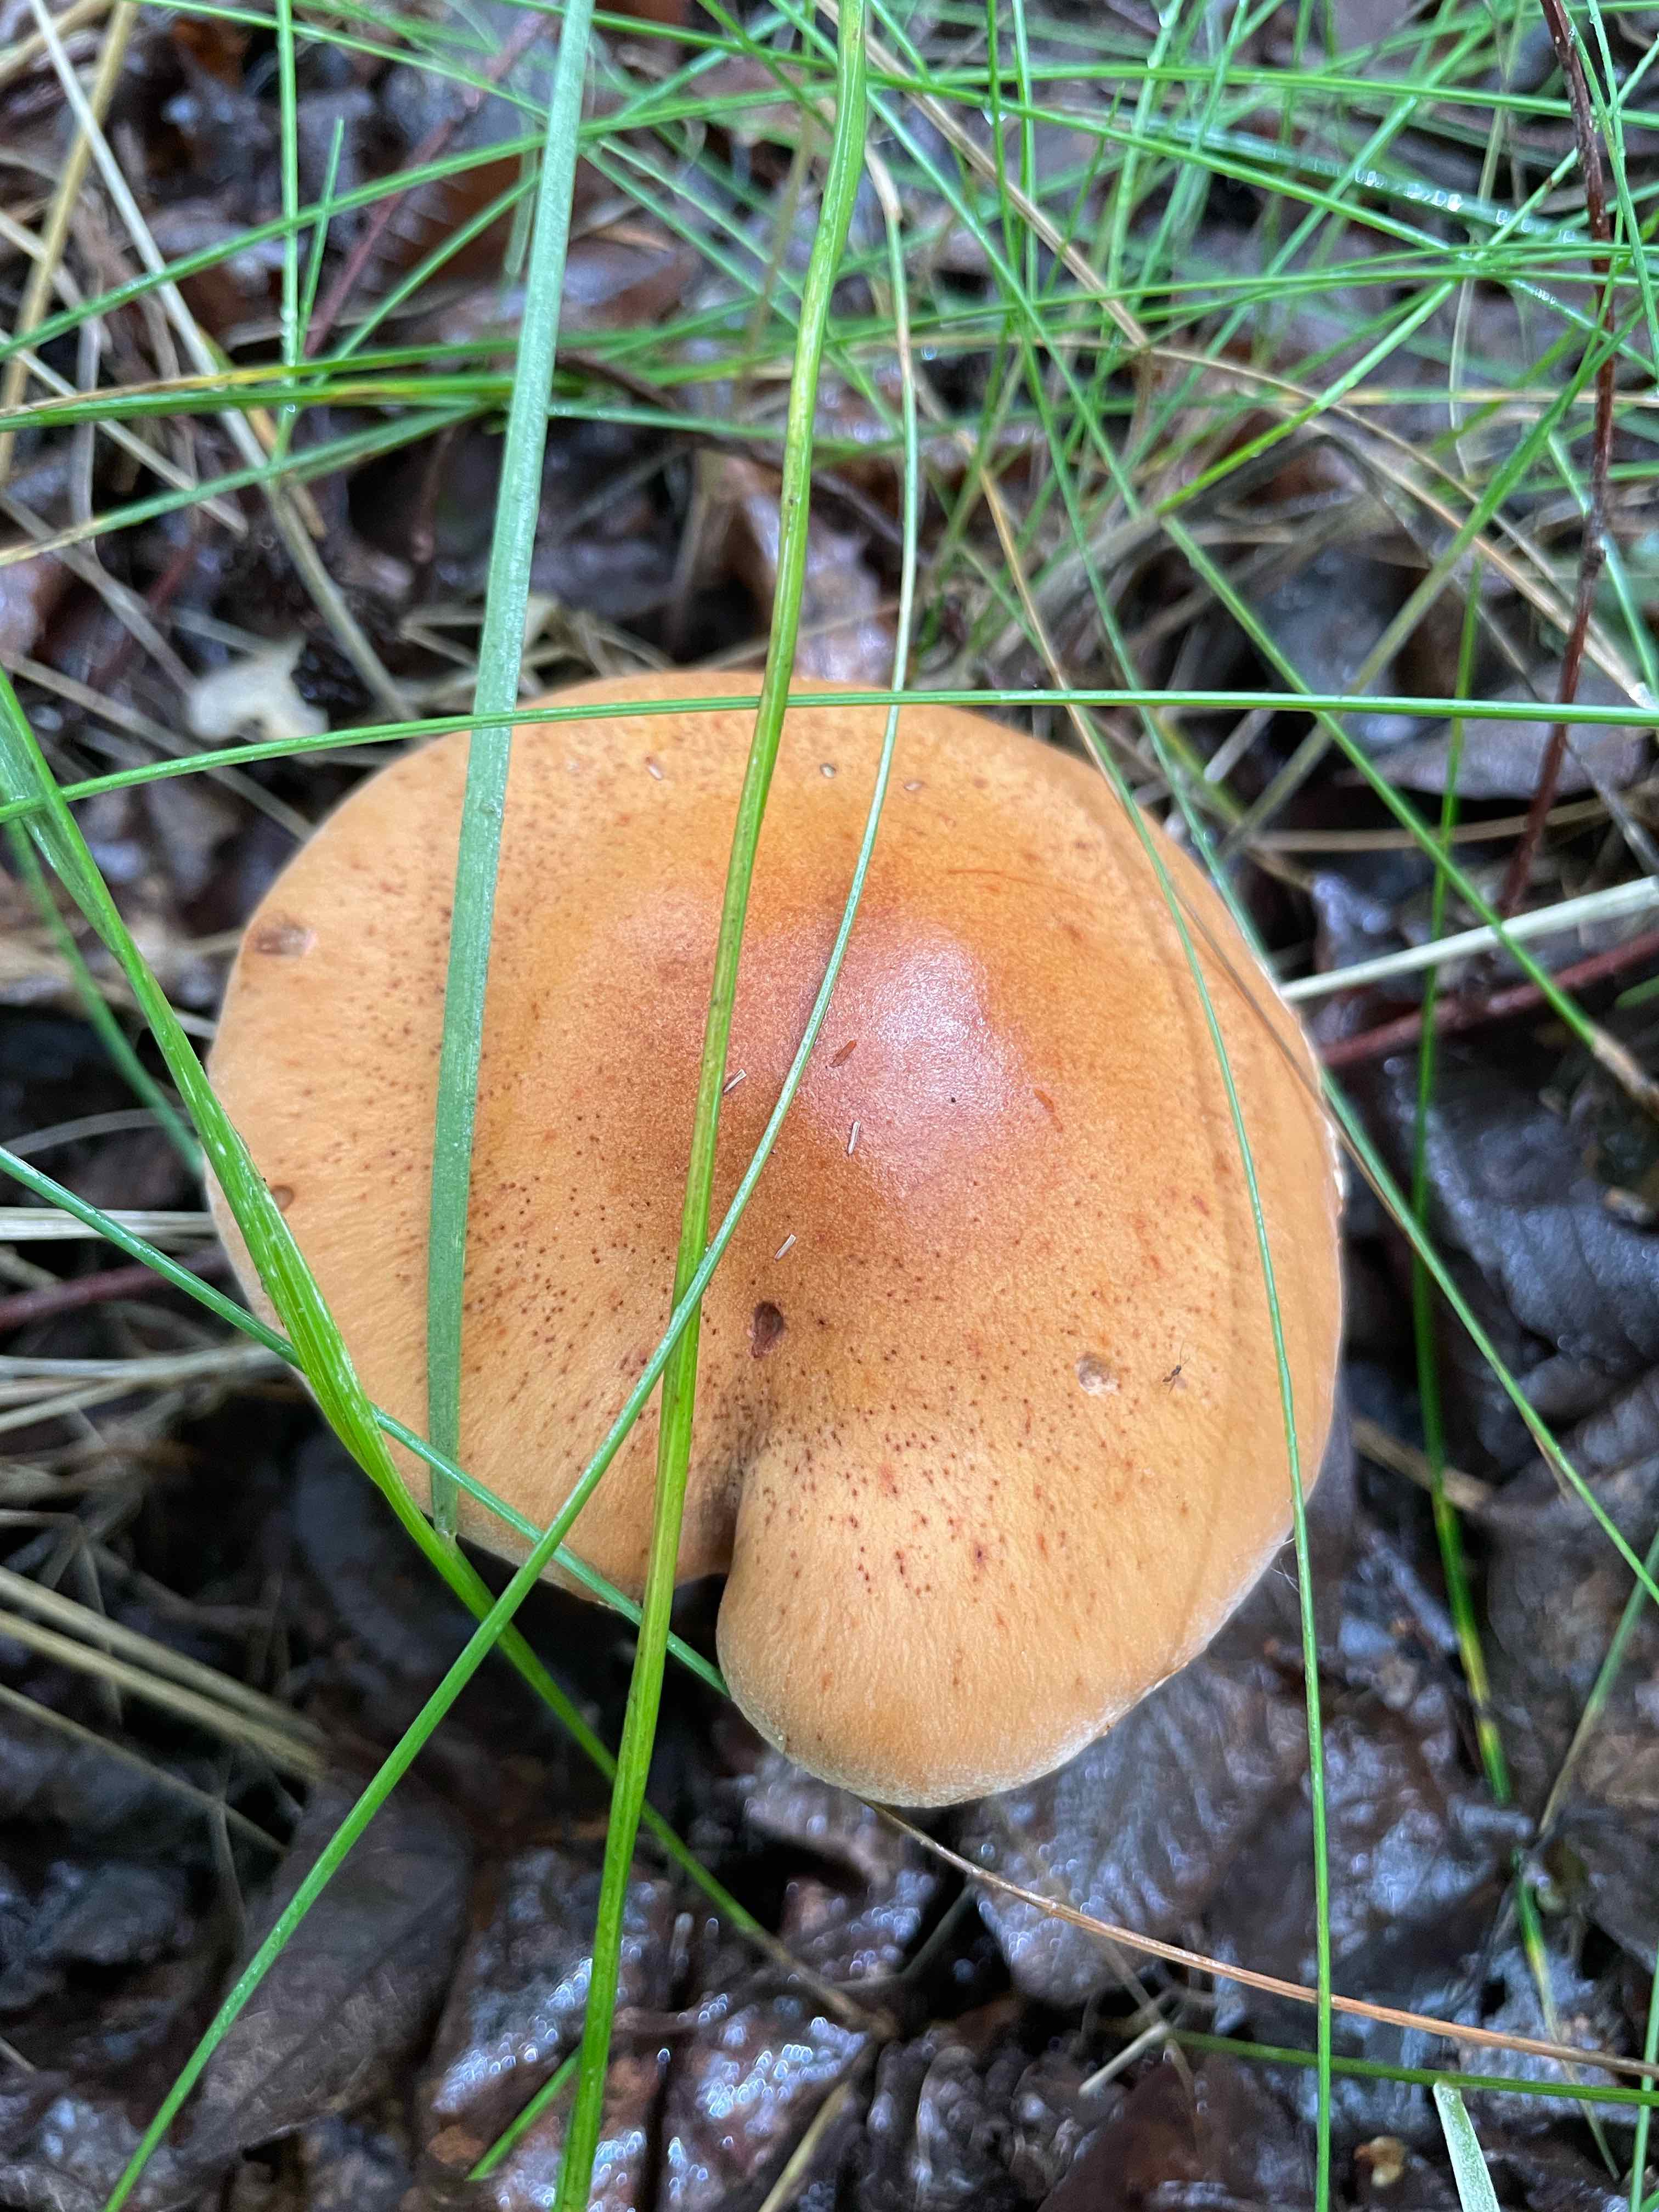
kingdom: Fungi
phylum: Basidiomycota
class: Agaricomycetes
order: Agaricales
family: Cortinariaceae
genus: Cortinarius
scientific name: Cortinarius bivelus
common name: orangebrun slørhat
